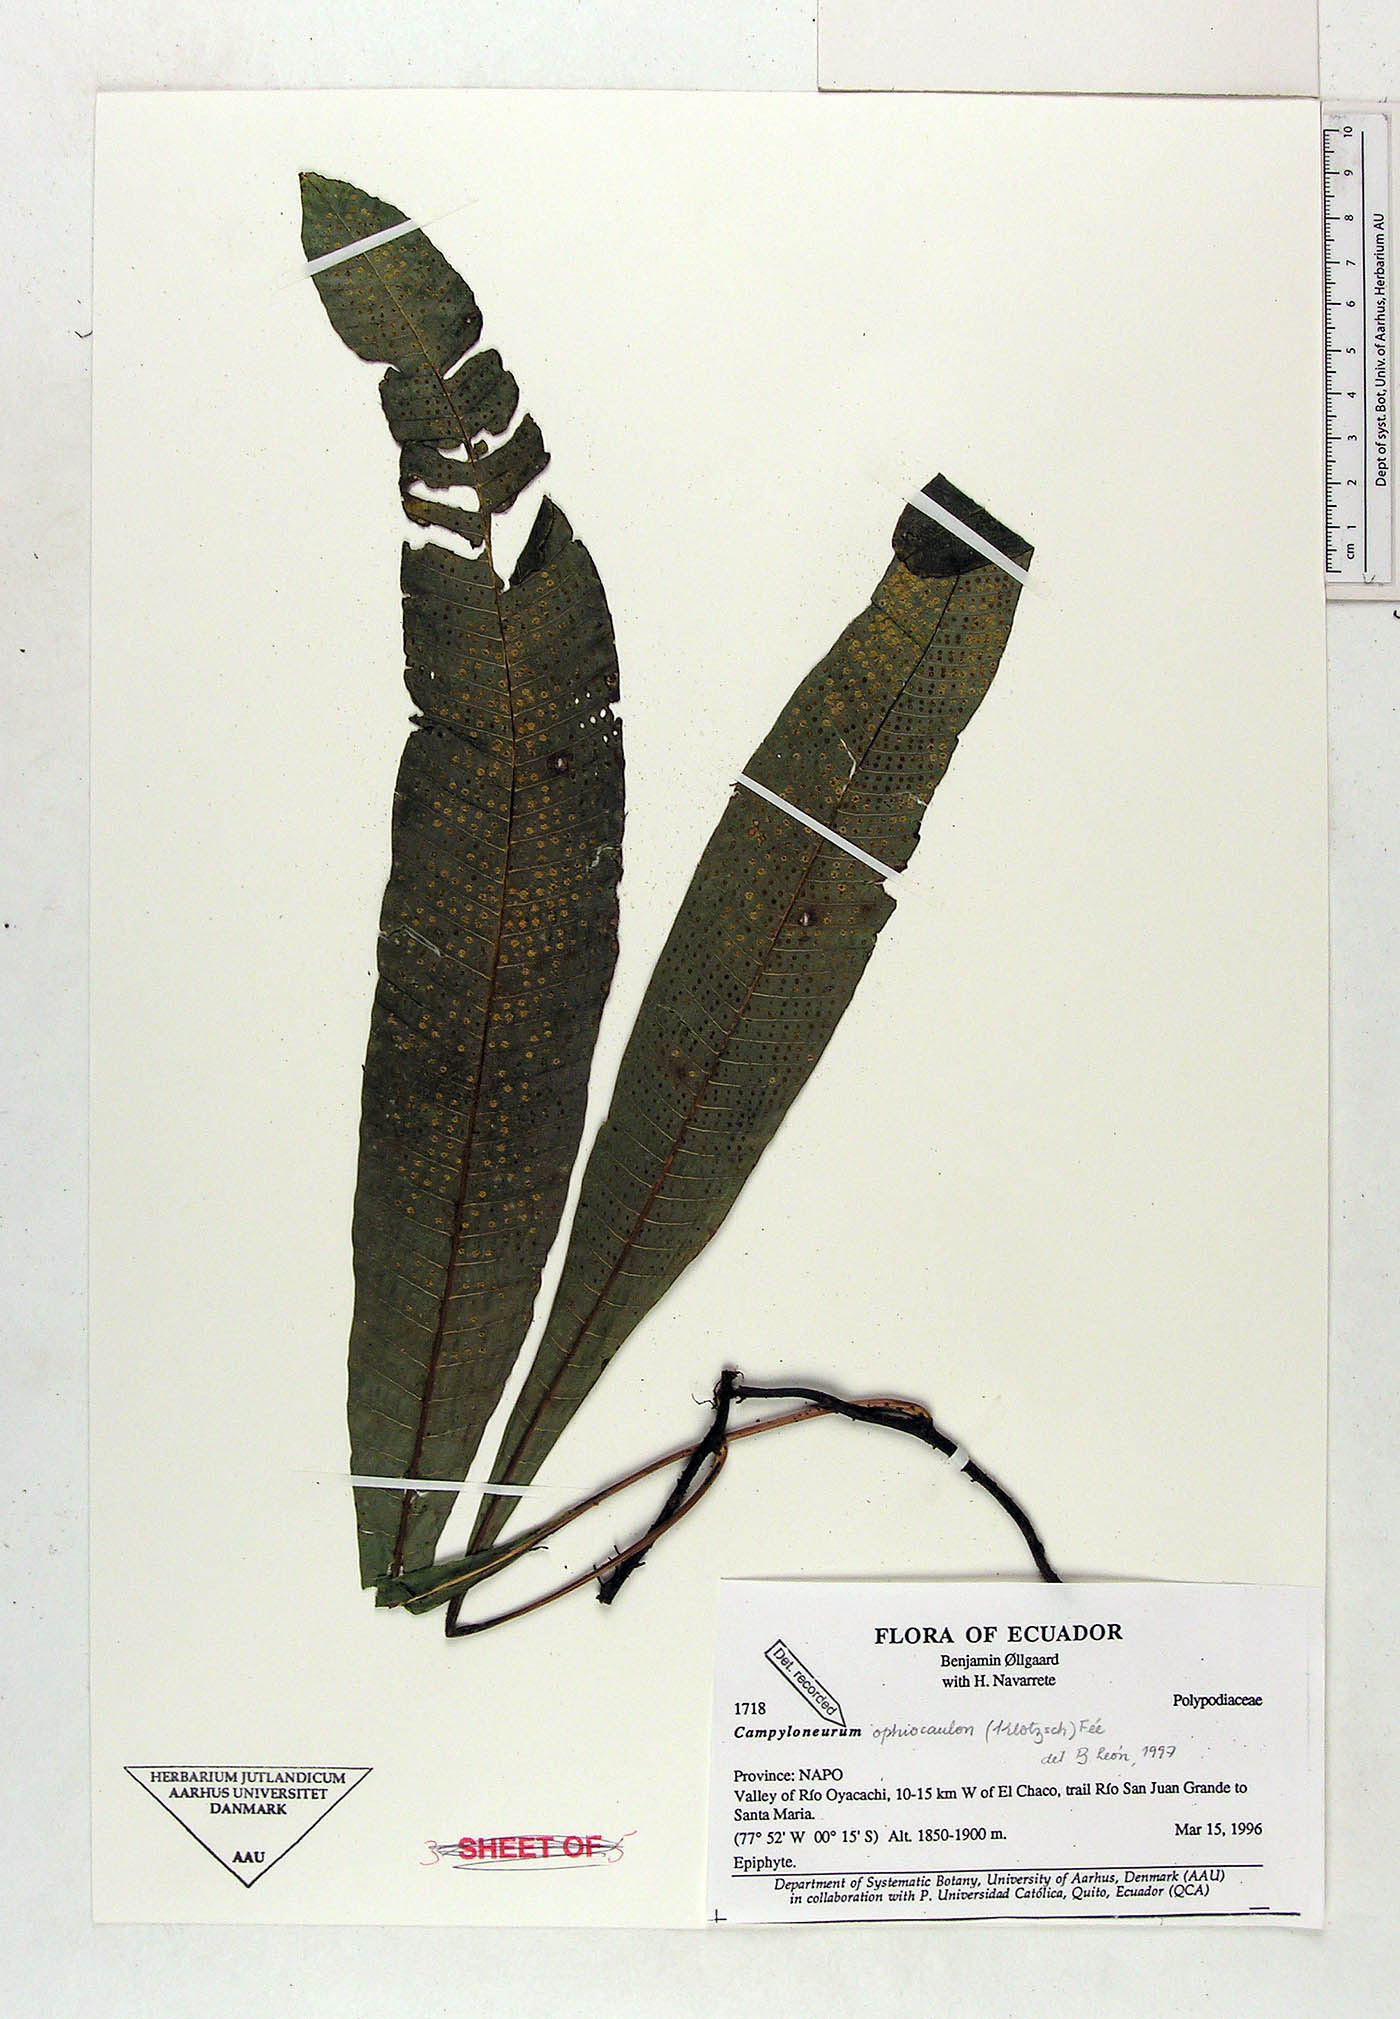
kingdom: Plantae
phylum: Tracheophyta
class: Polypodiopsida
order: Polypodiales
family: Polypodiaceae
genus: Campyloneurum
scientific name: Campyloneurum ophiocaulon
